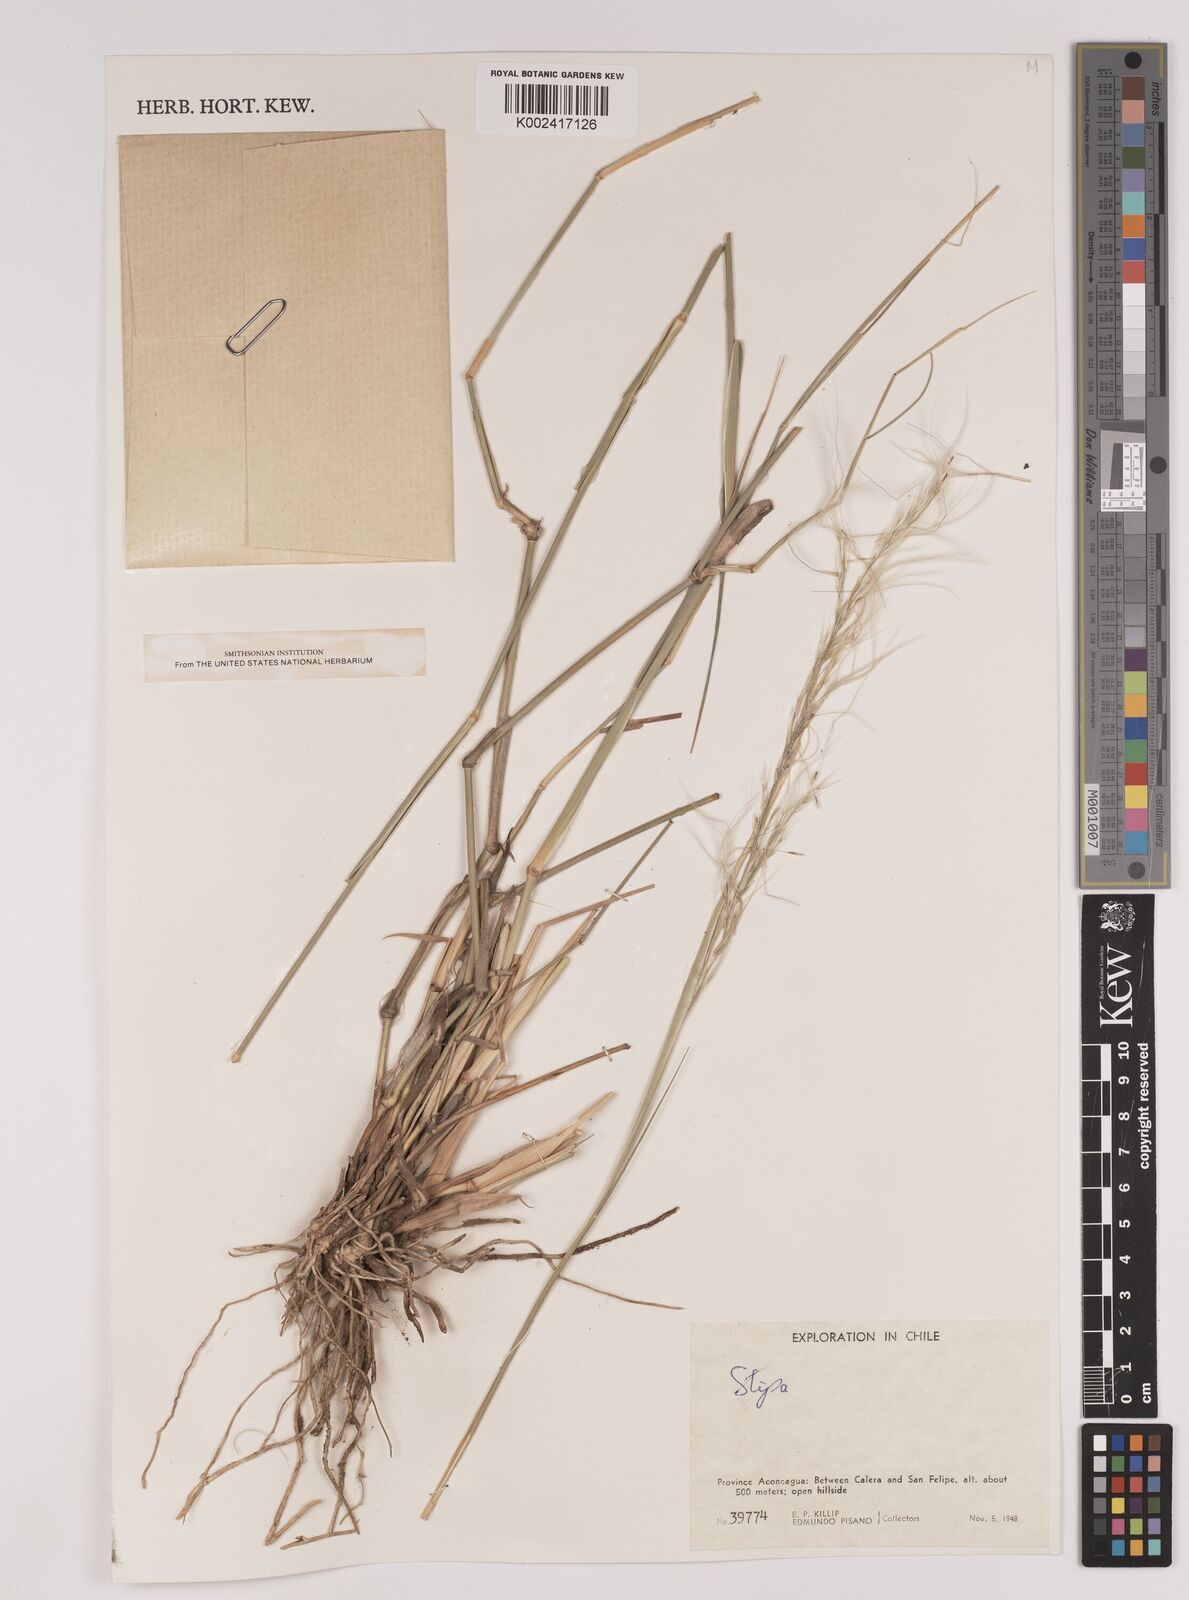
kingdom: Plantae
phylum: Tracheophyta
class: Liliopsida
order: Poales
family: Poaceae
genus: Stipa
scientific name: Stipa
